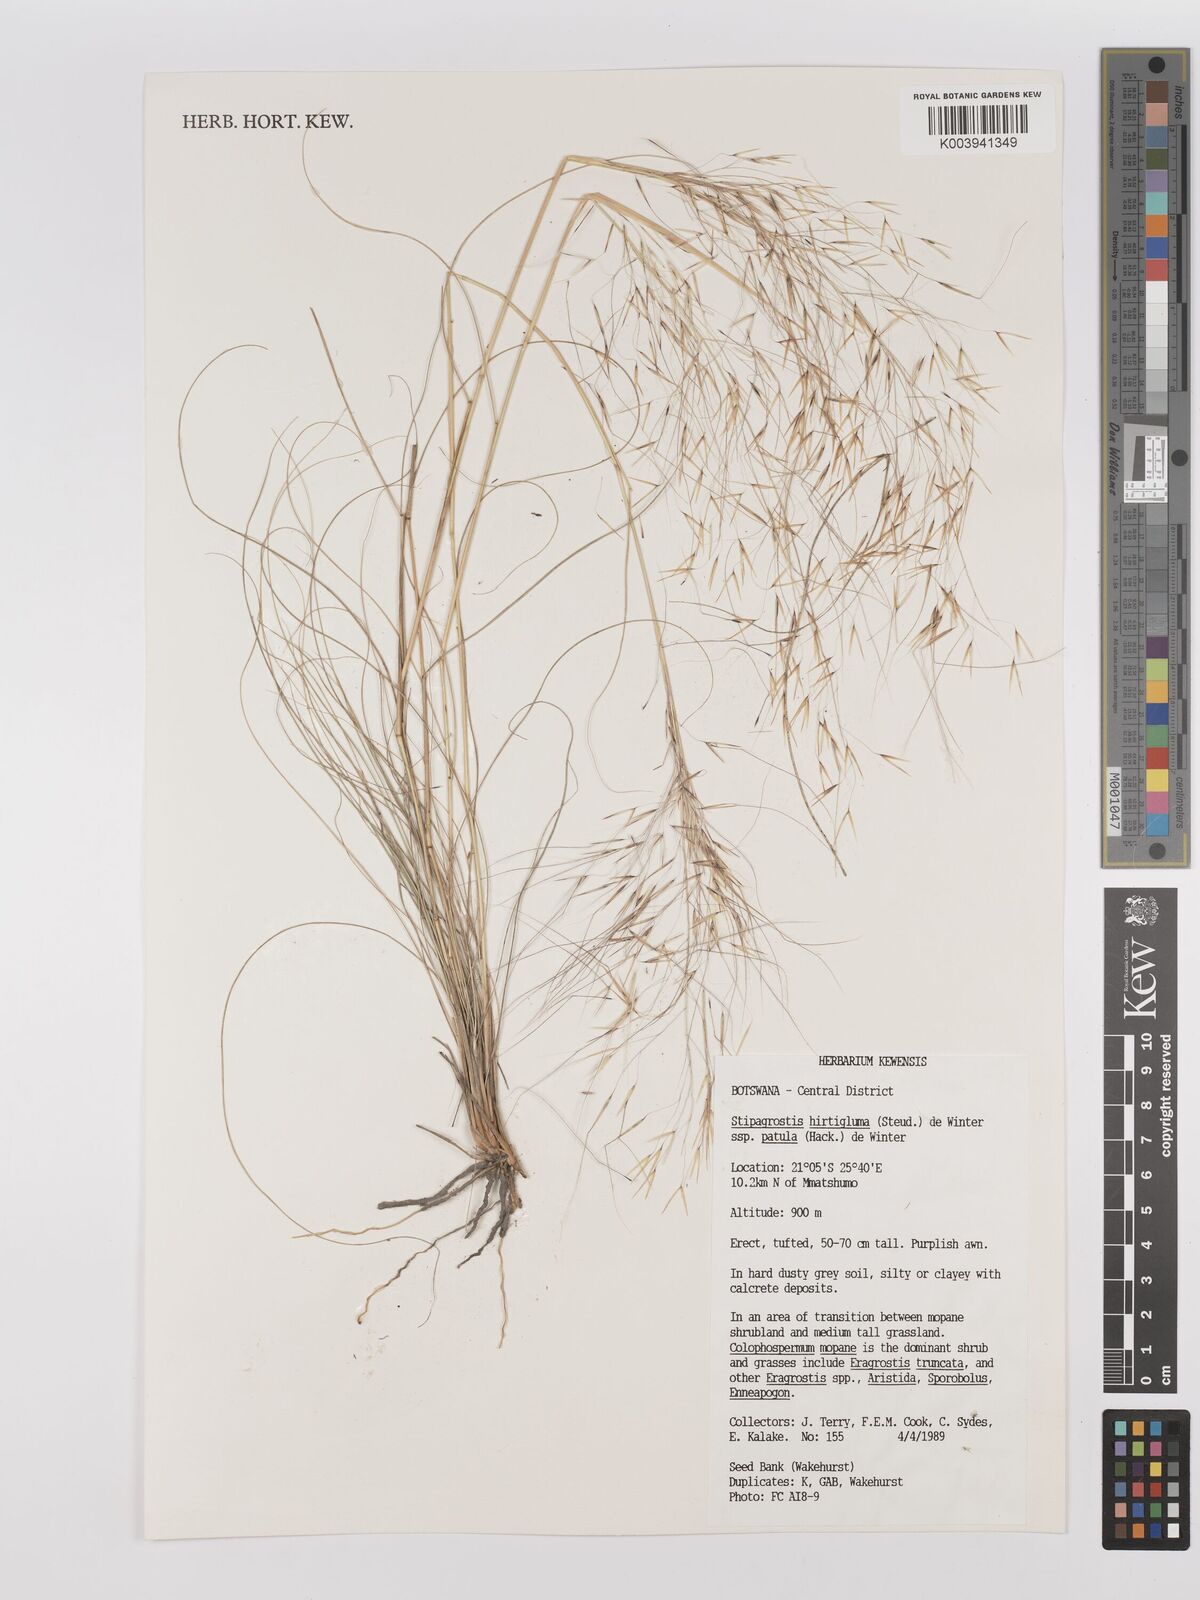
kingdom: Plantae
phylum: Tracheophyta
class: Liliopsida
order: Poales
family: Poaceae
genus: Stipagrostis
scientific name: Stipagrostis hirtigluma
